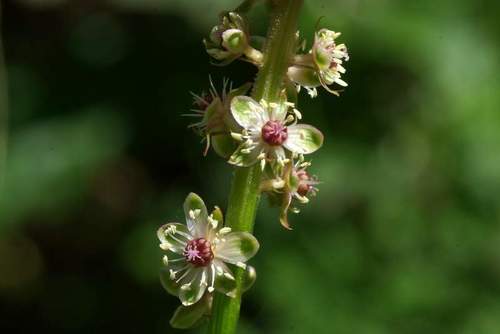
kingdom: Plantae
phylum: Tracheophyta
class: Magnoliopsida
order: Caryophyllales
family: Phytolaccaceae
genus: Phytolacca
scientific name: Phytolacca heterotepala
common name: Mexican pokeweed
